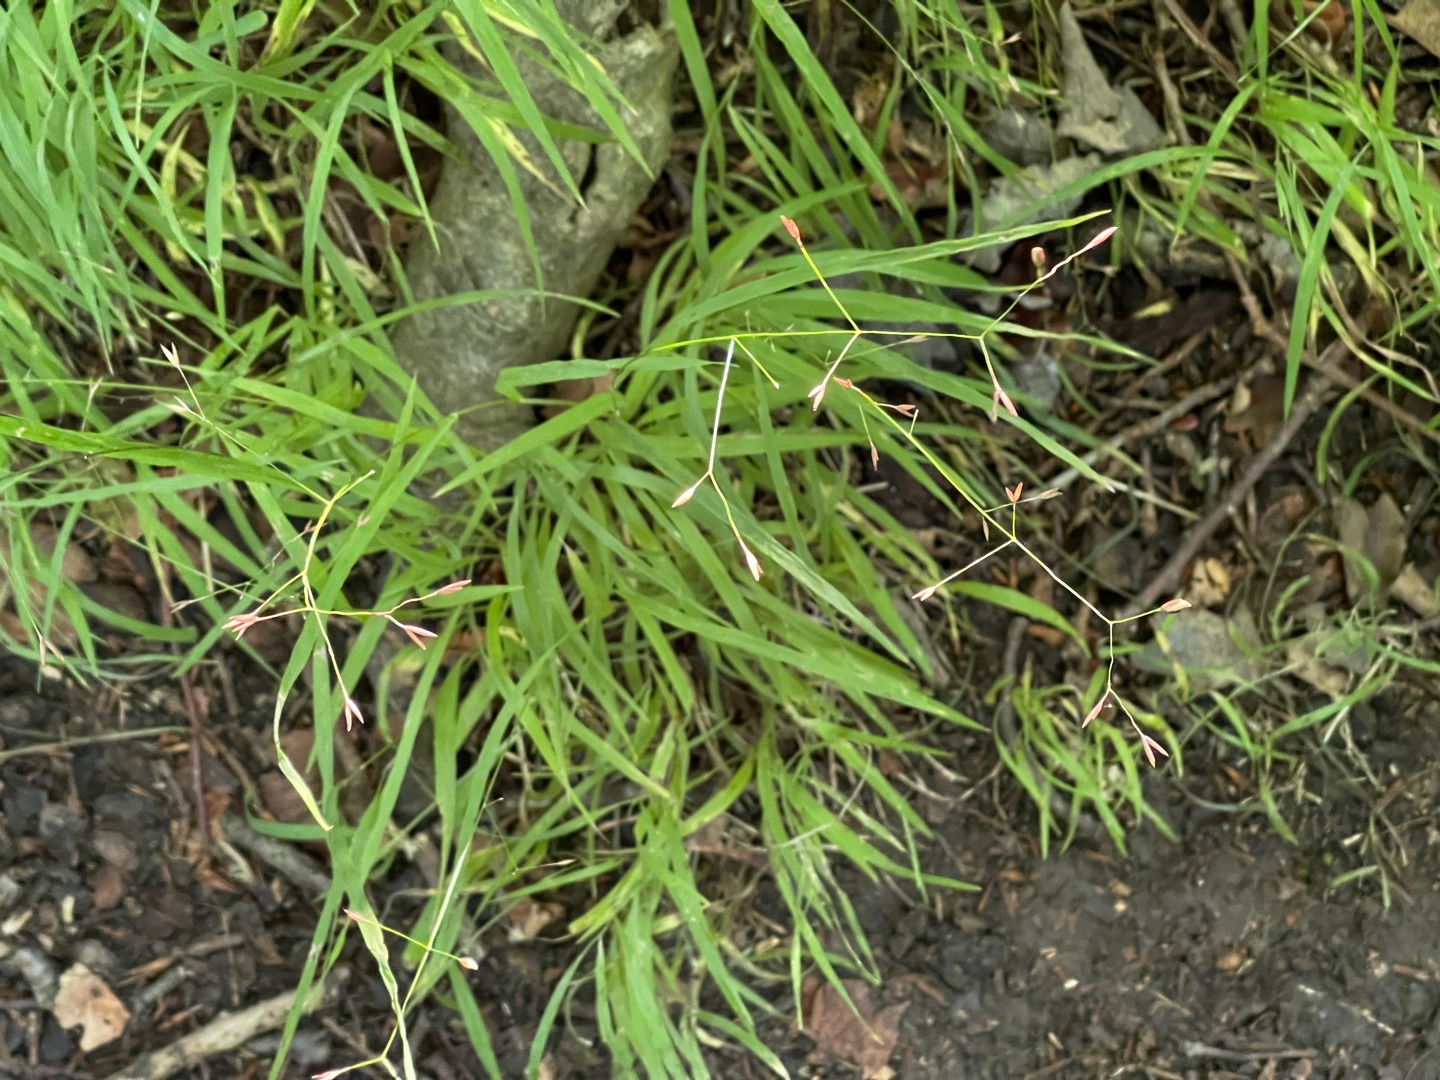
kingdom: Plantae
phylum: Tracheophyta
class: Liliopsida
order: Poales
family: Poaceae
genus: Melica
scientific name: Melica uniflora
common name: Enblomstret flitteraks
